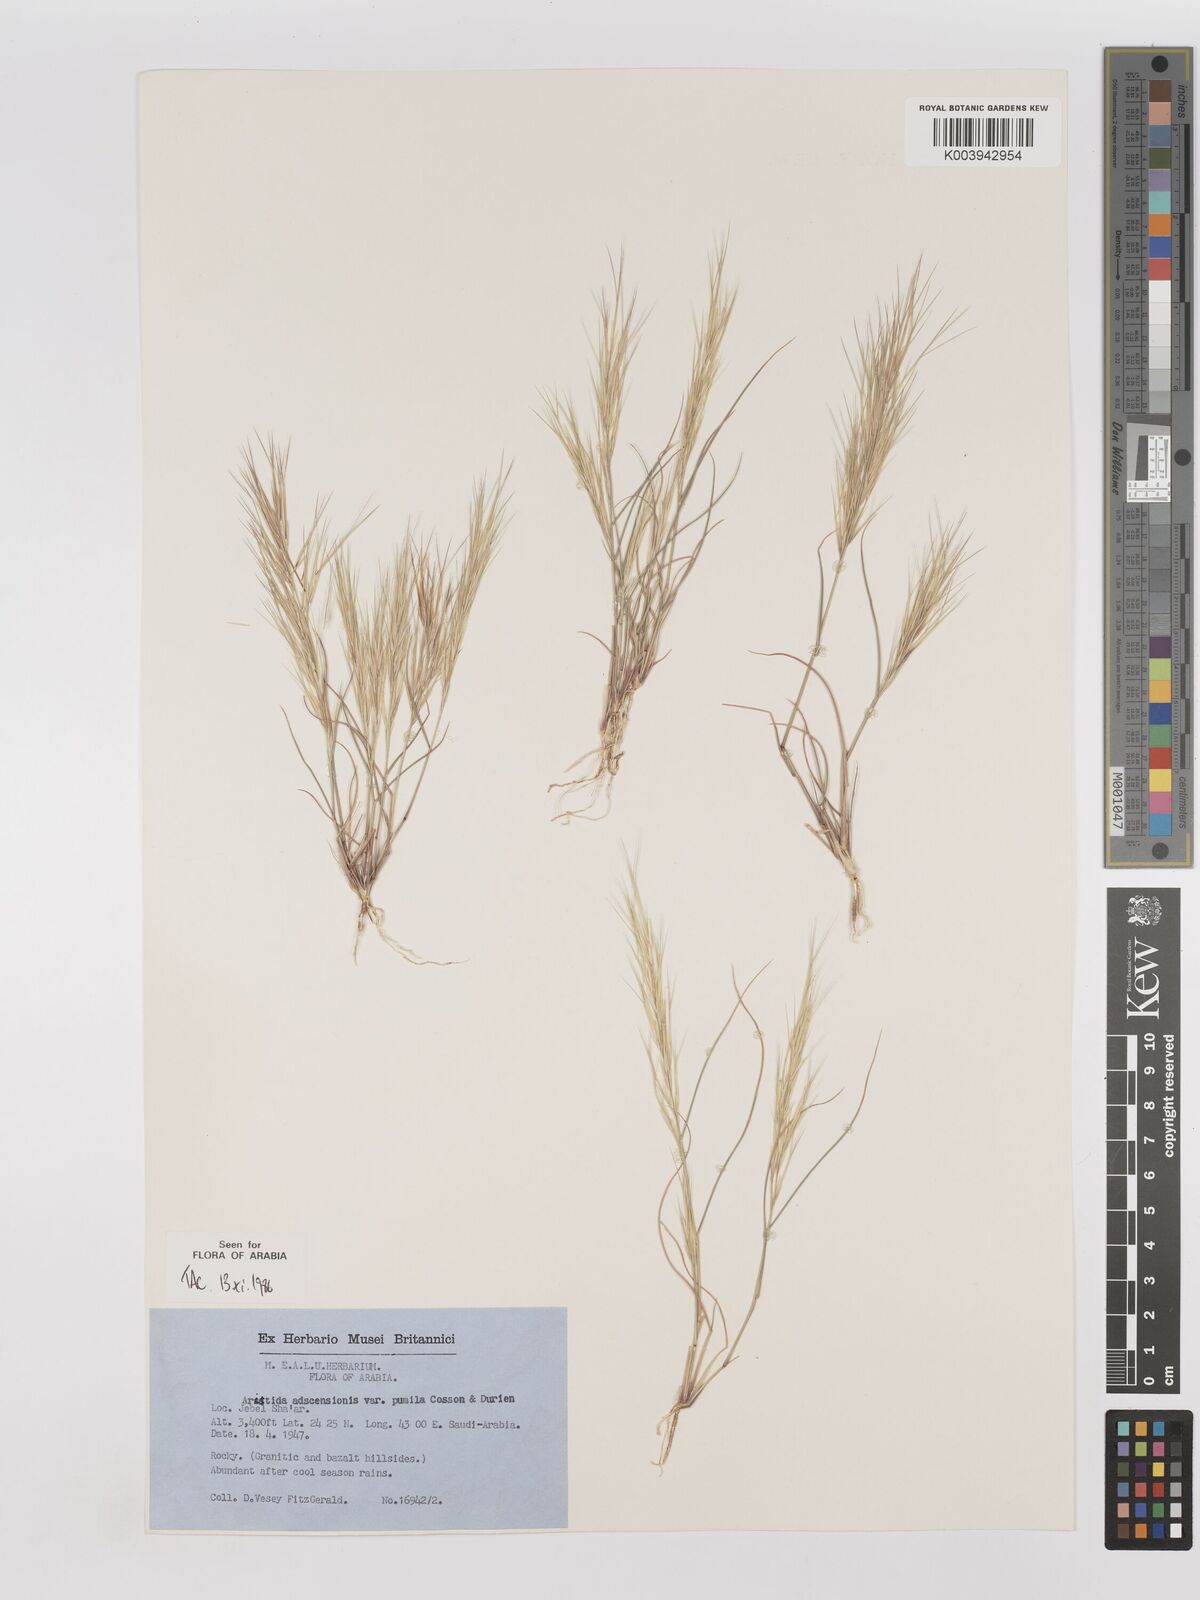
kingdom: Plantae
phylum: Tracheophyta
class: Liliopsida
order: Poales
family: Poaceae
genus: Aristida
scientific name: Aristida adscensionis
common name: Sixweeks threeawn
